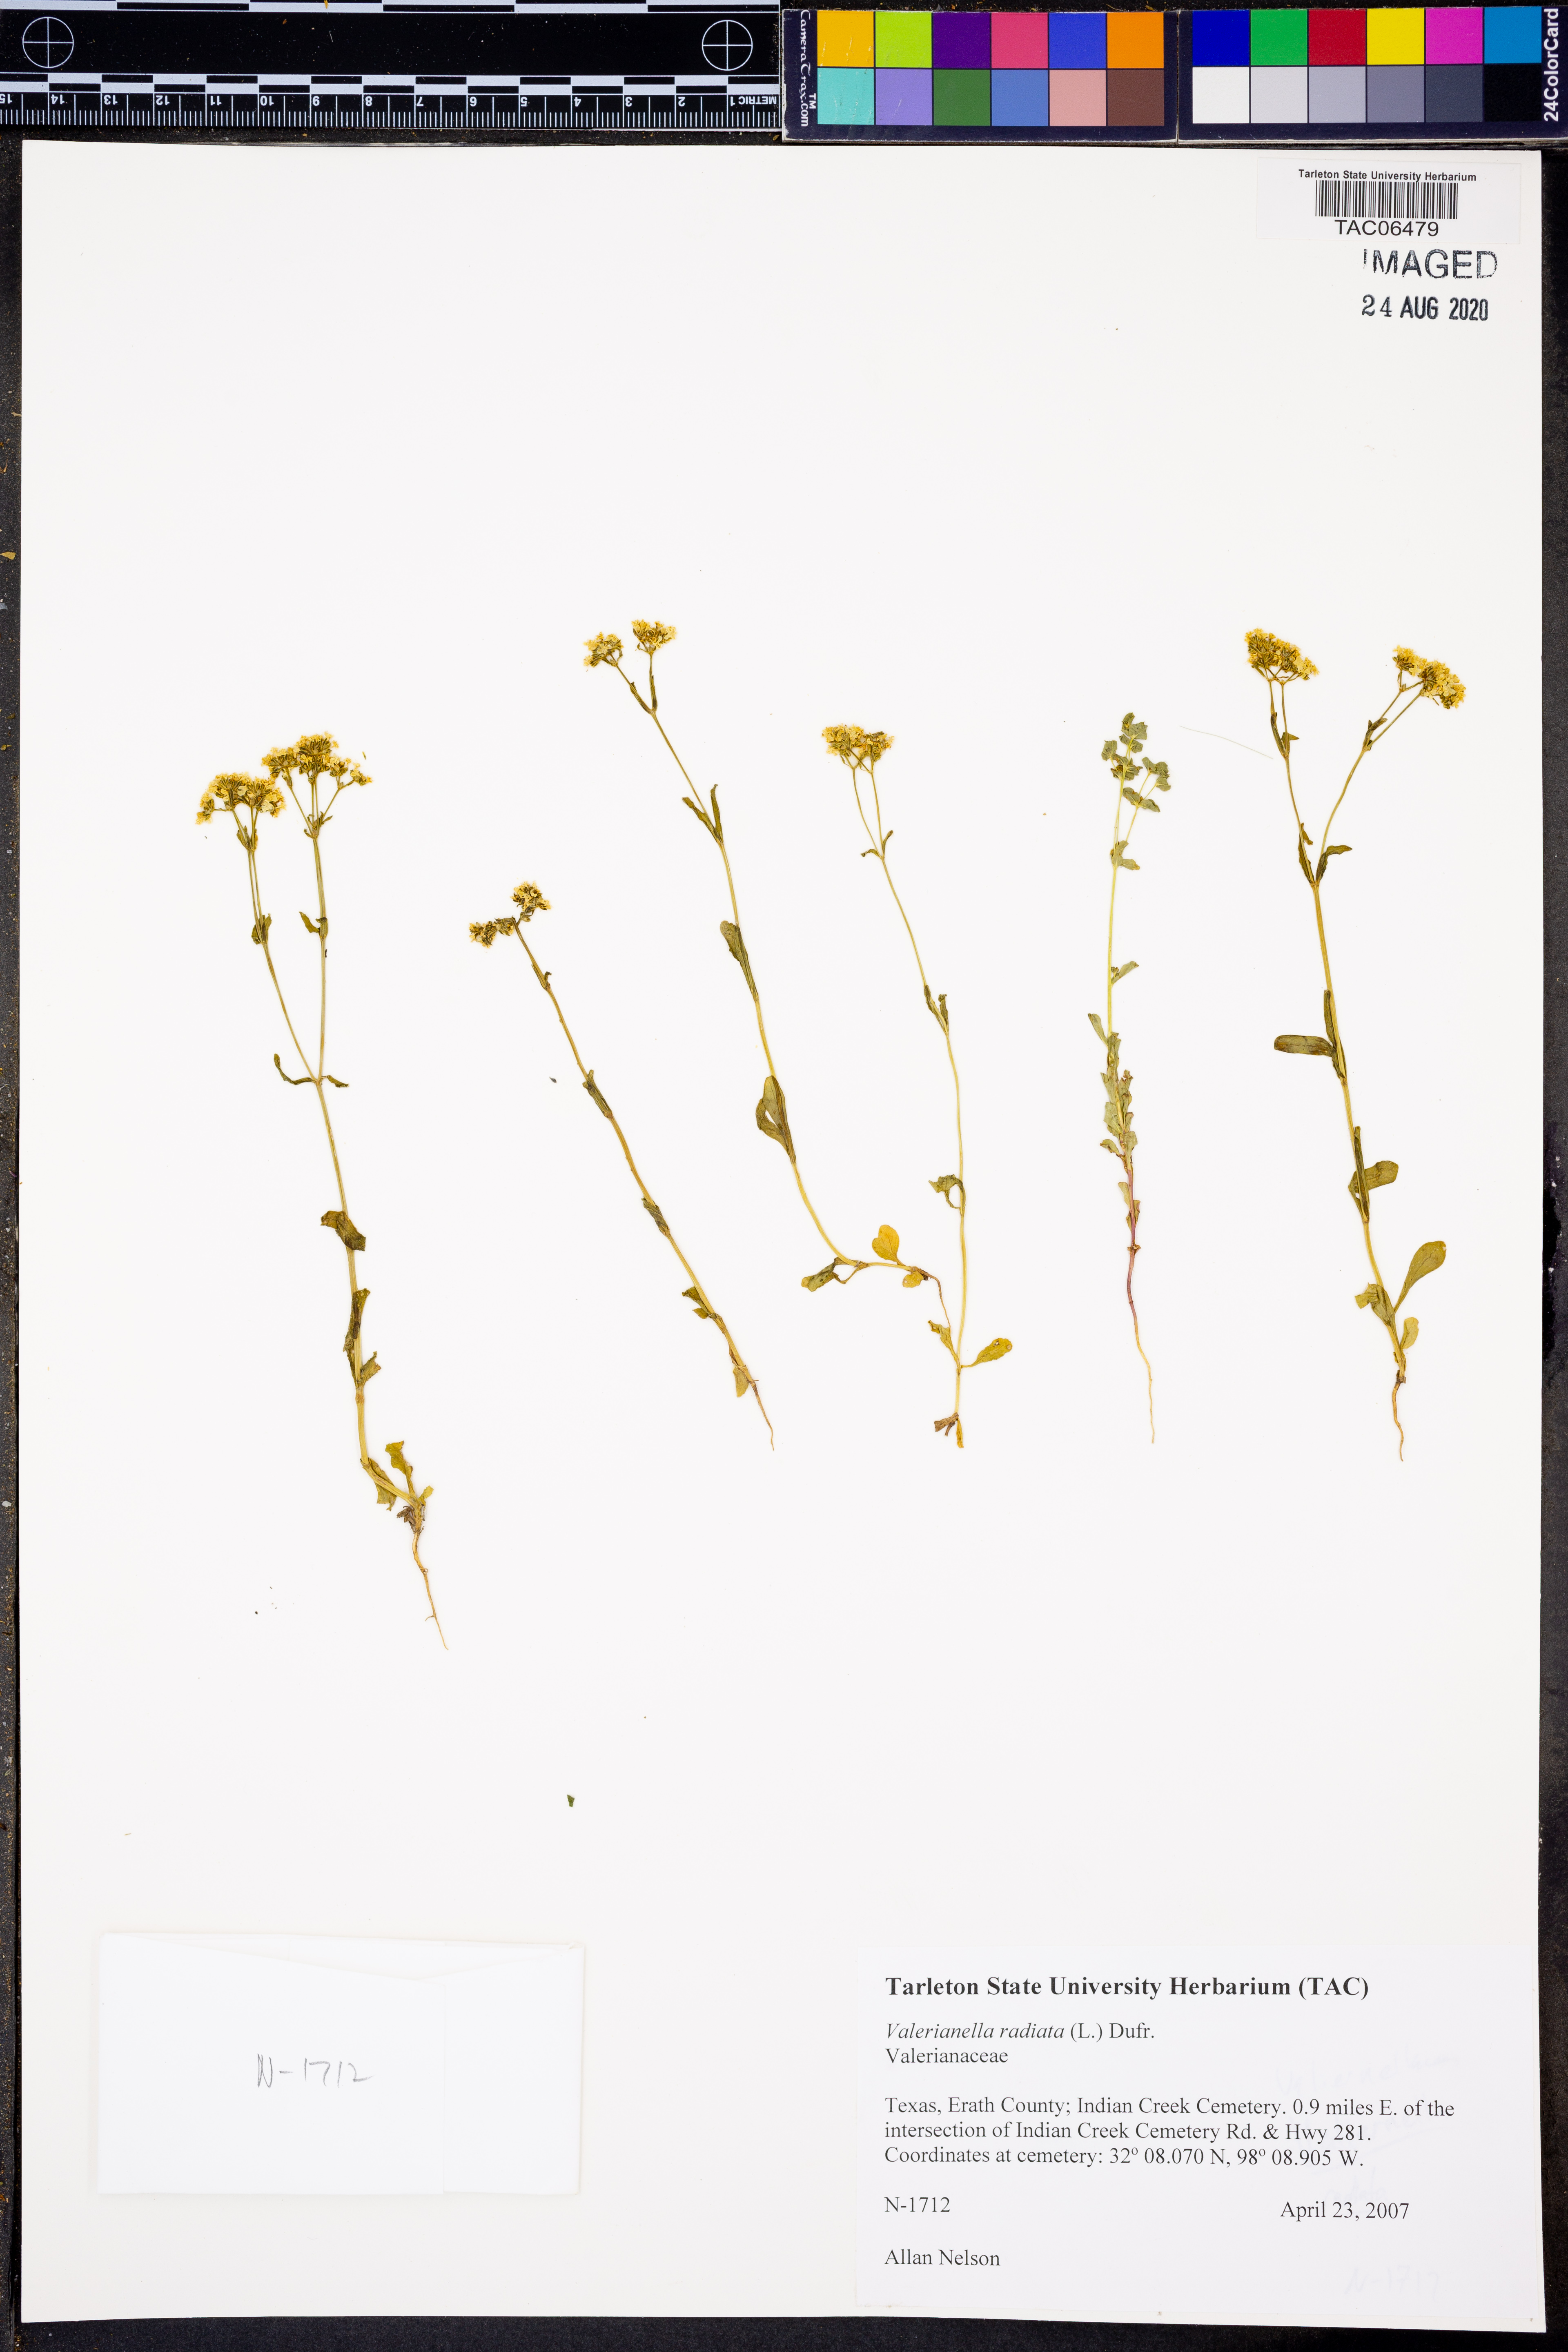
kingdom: Plantae
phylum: Tracheophyta
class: Magnoliopsida
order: Dipsacales
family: Caprifoliaceae
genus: Valerianella
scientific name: Valerianella radiata
